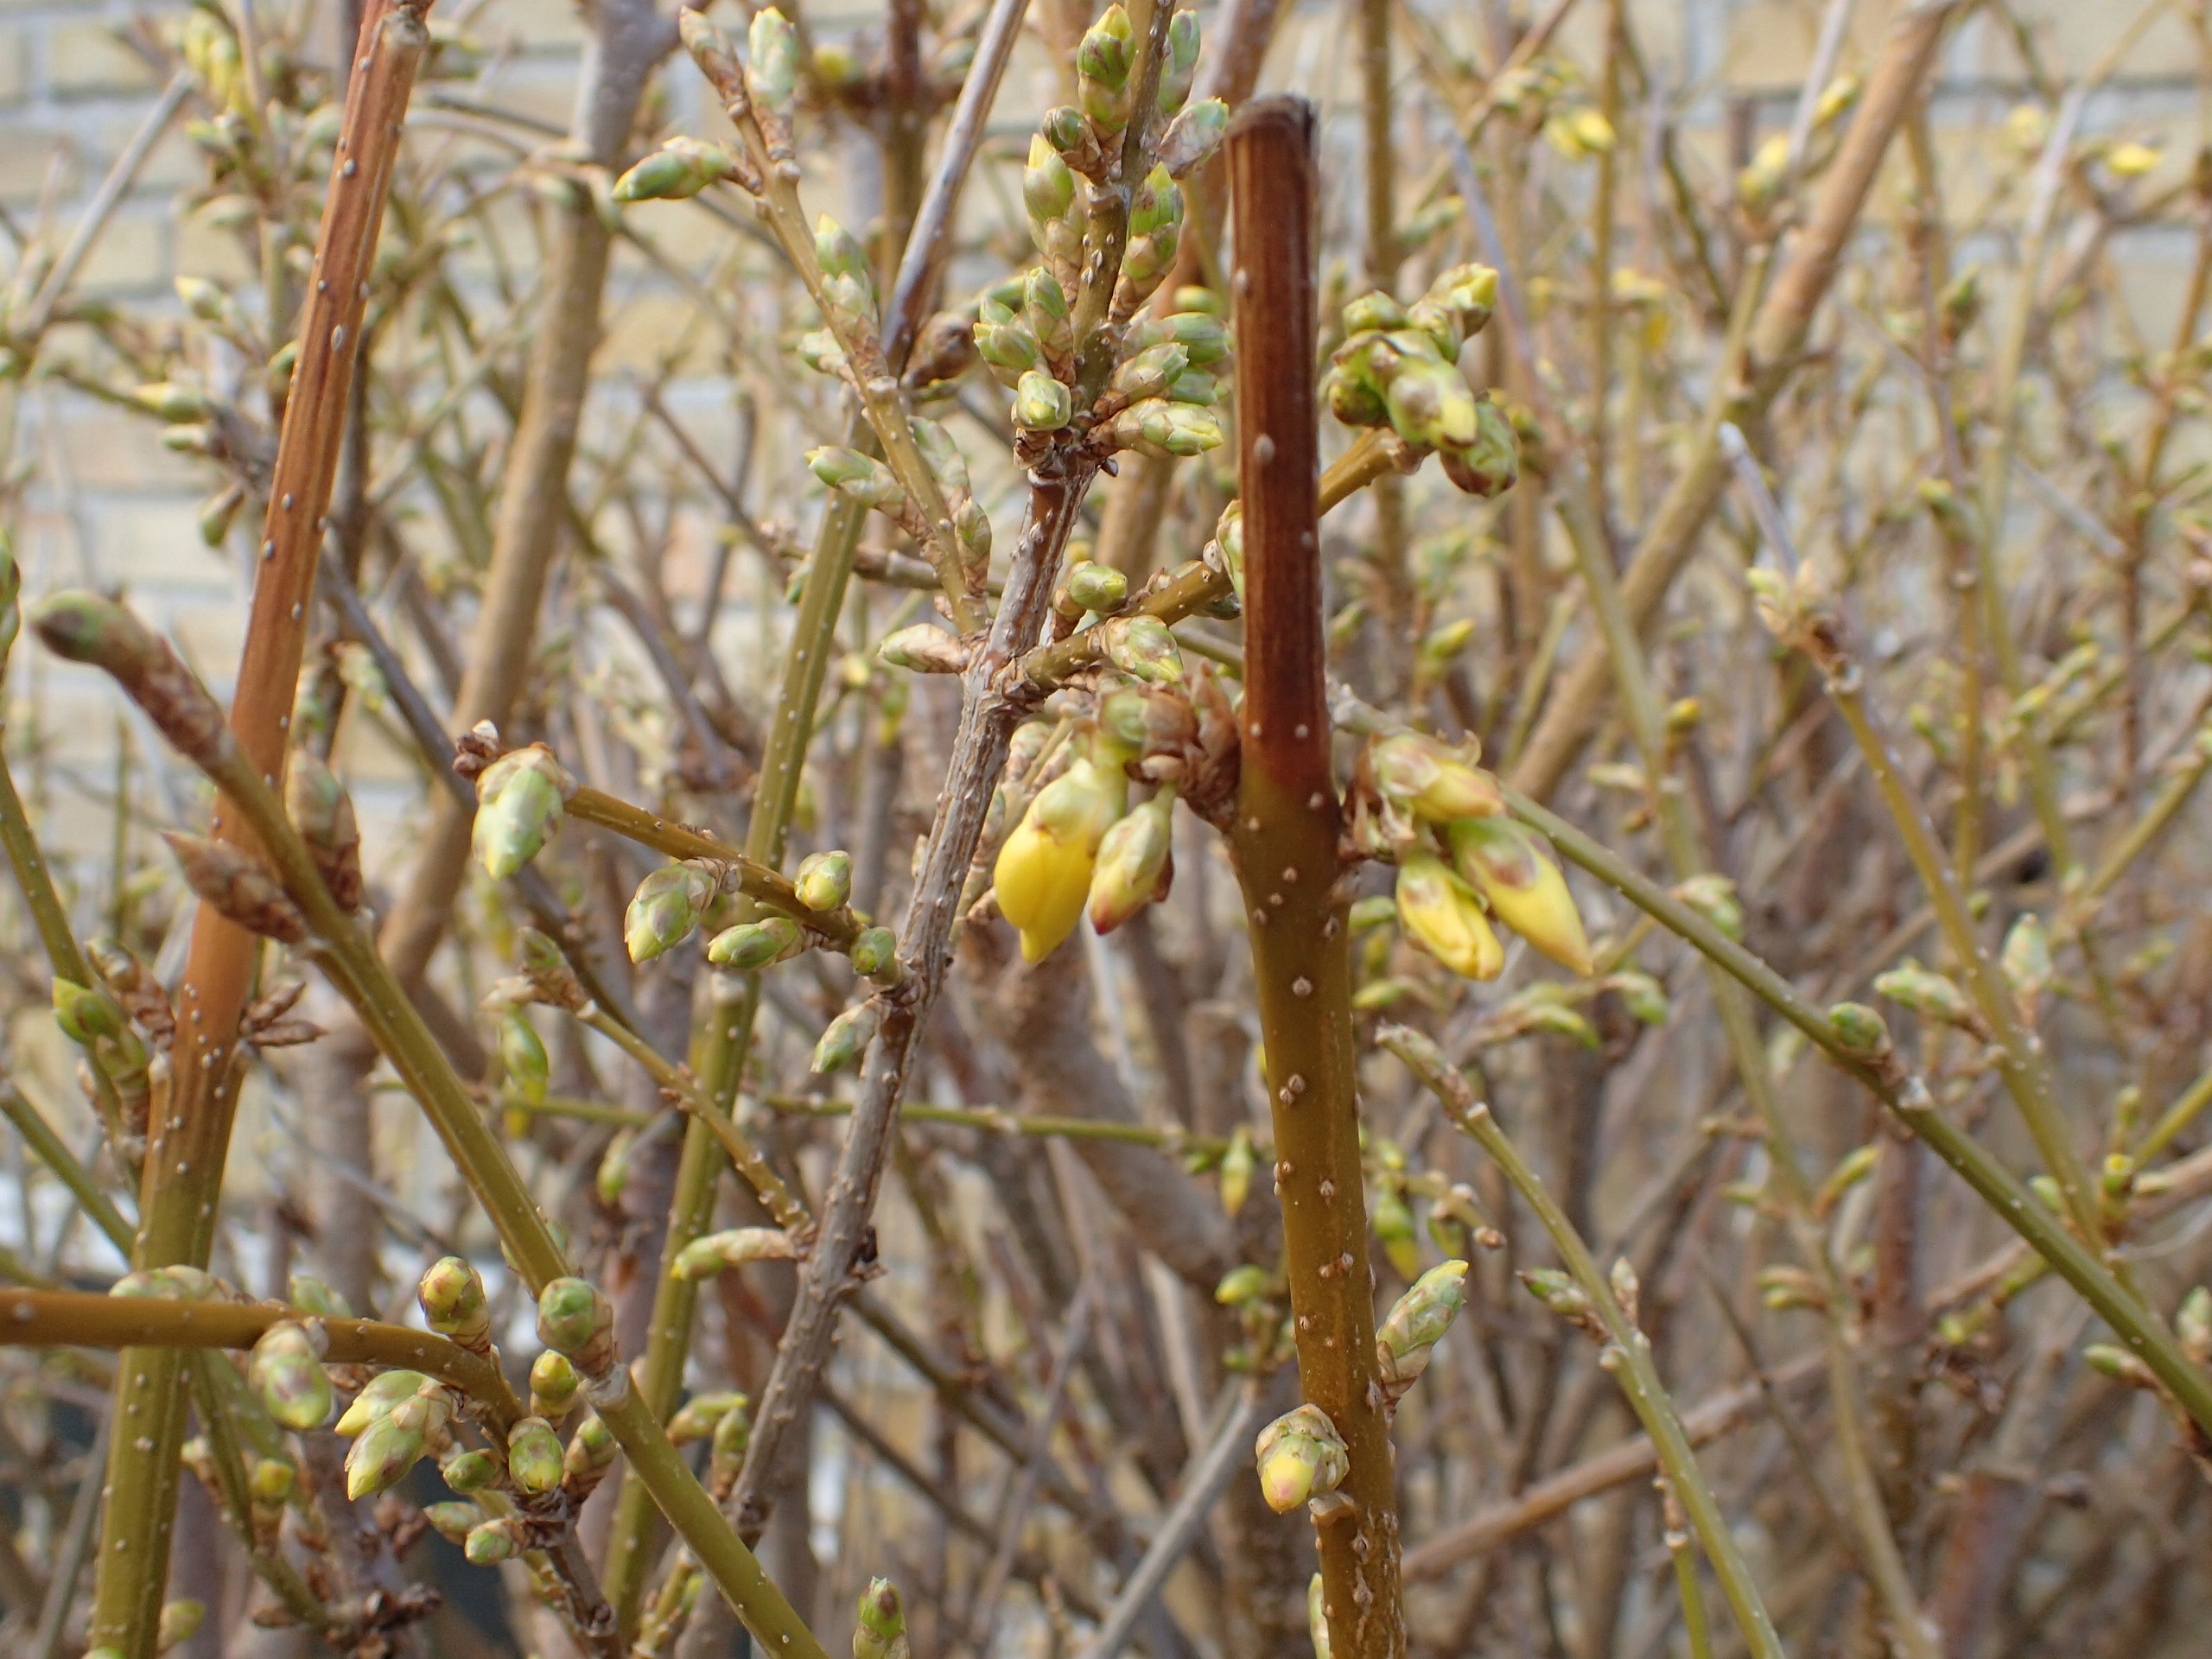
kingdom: Plantae
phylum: Tracheophyta
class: Magnoliopsida
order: Lamiales
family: Oleaceae
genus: Forsythia
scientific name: Forsythia intermedia
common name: Have-forsythia
